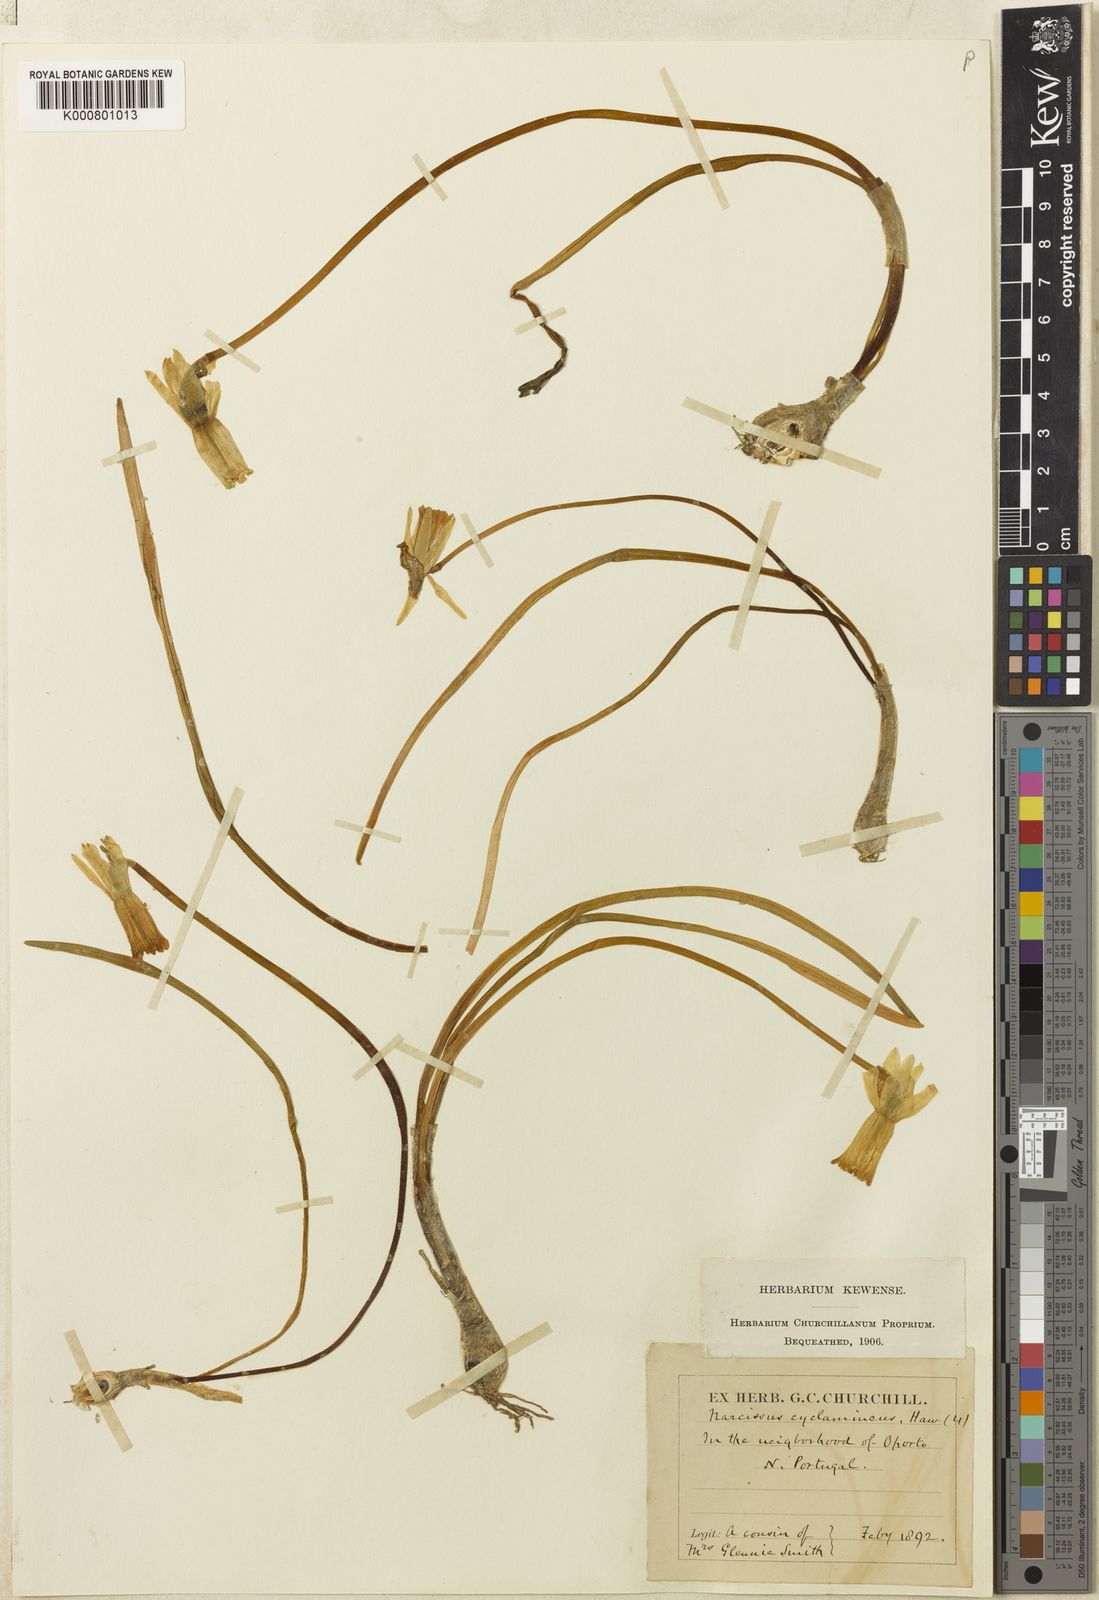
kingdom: Plantae
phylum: Tracheophyta
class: Liliopsida
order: Asparagales
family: Amaryllidaceae
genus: Narcissus
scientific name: Narcissus cyclamineus
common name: Cyclamen-flowered daffodil
